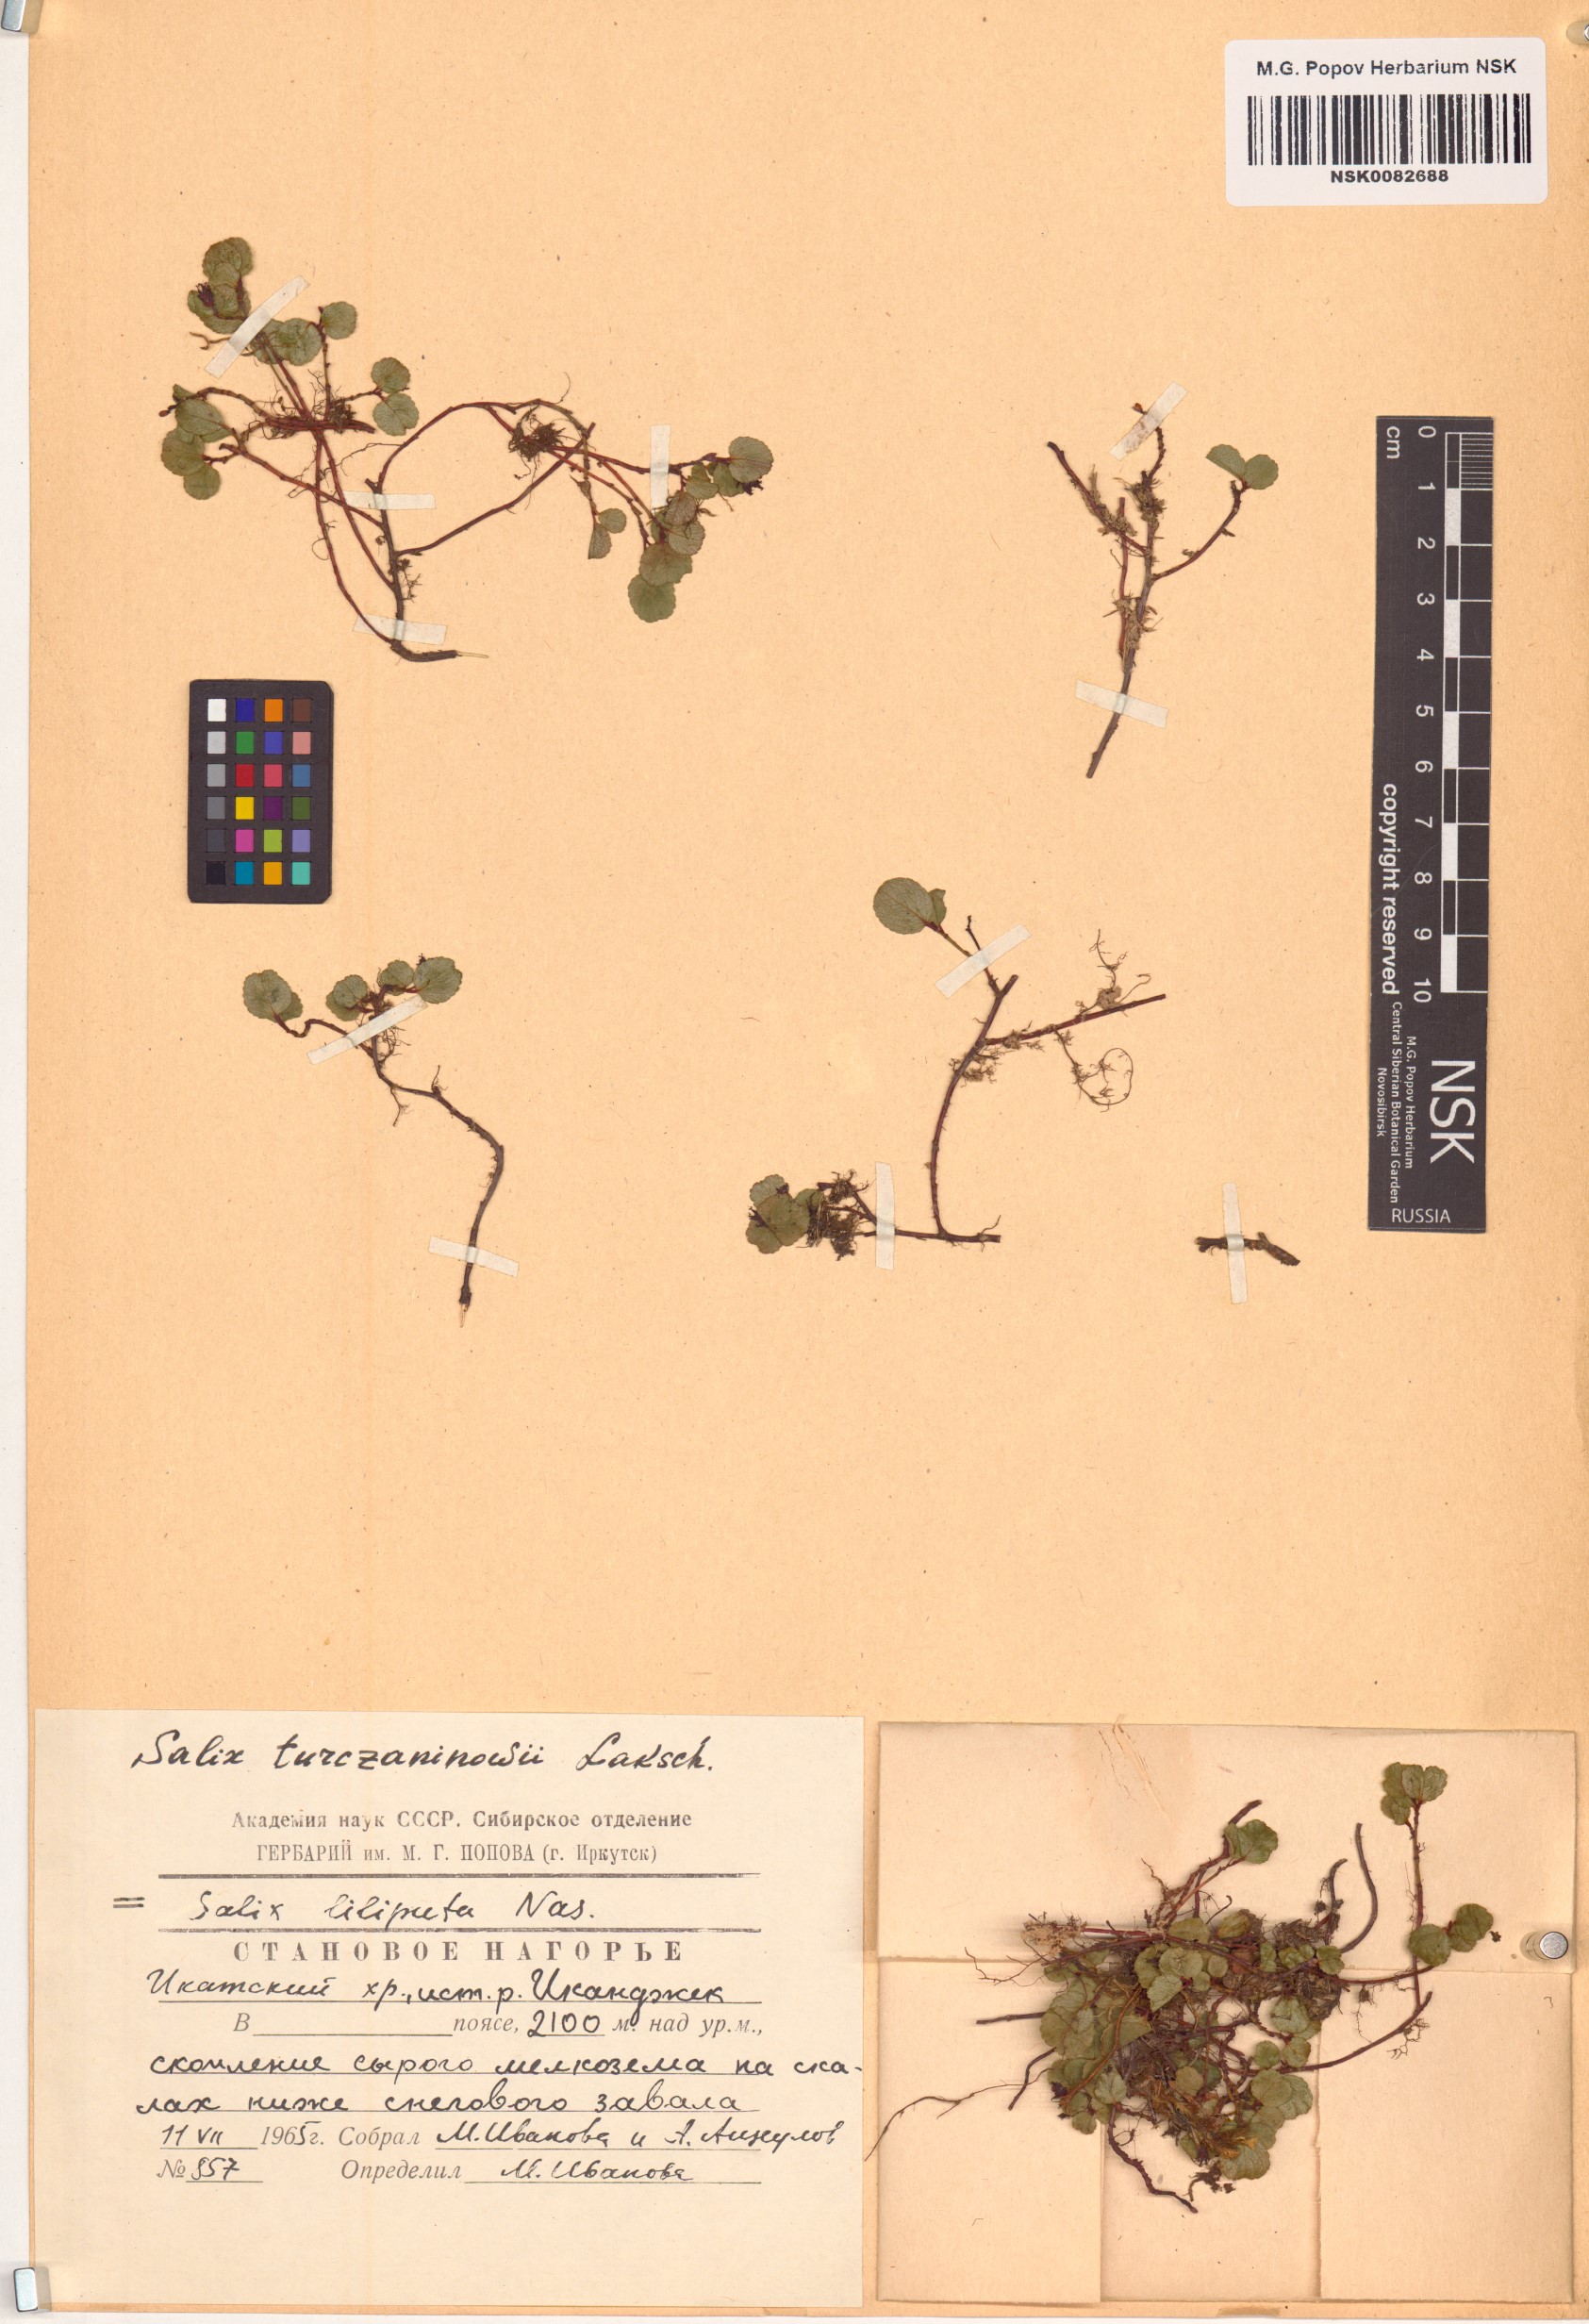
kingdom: Plantae
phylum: Tracheophyta
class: Magnoliopsida
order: Malpighiales
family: Salicaceae
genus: Salix
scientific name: Salix turczaninowii
